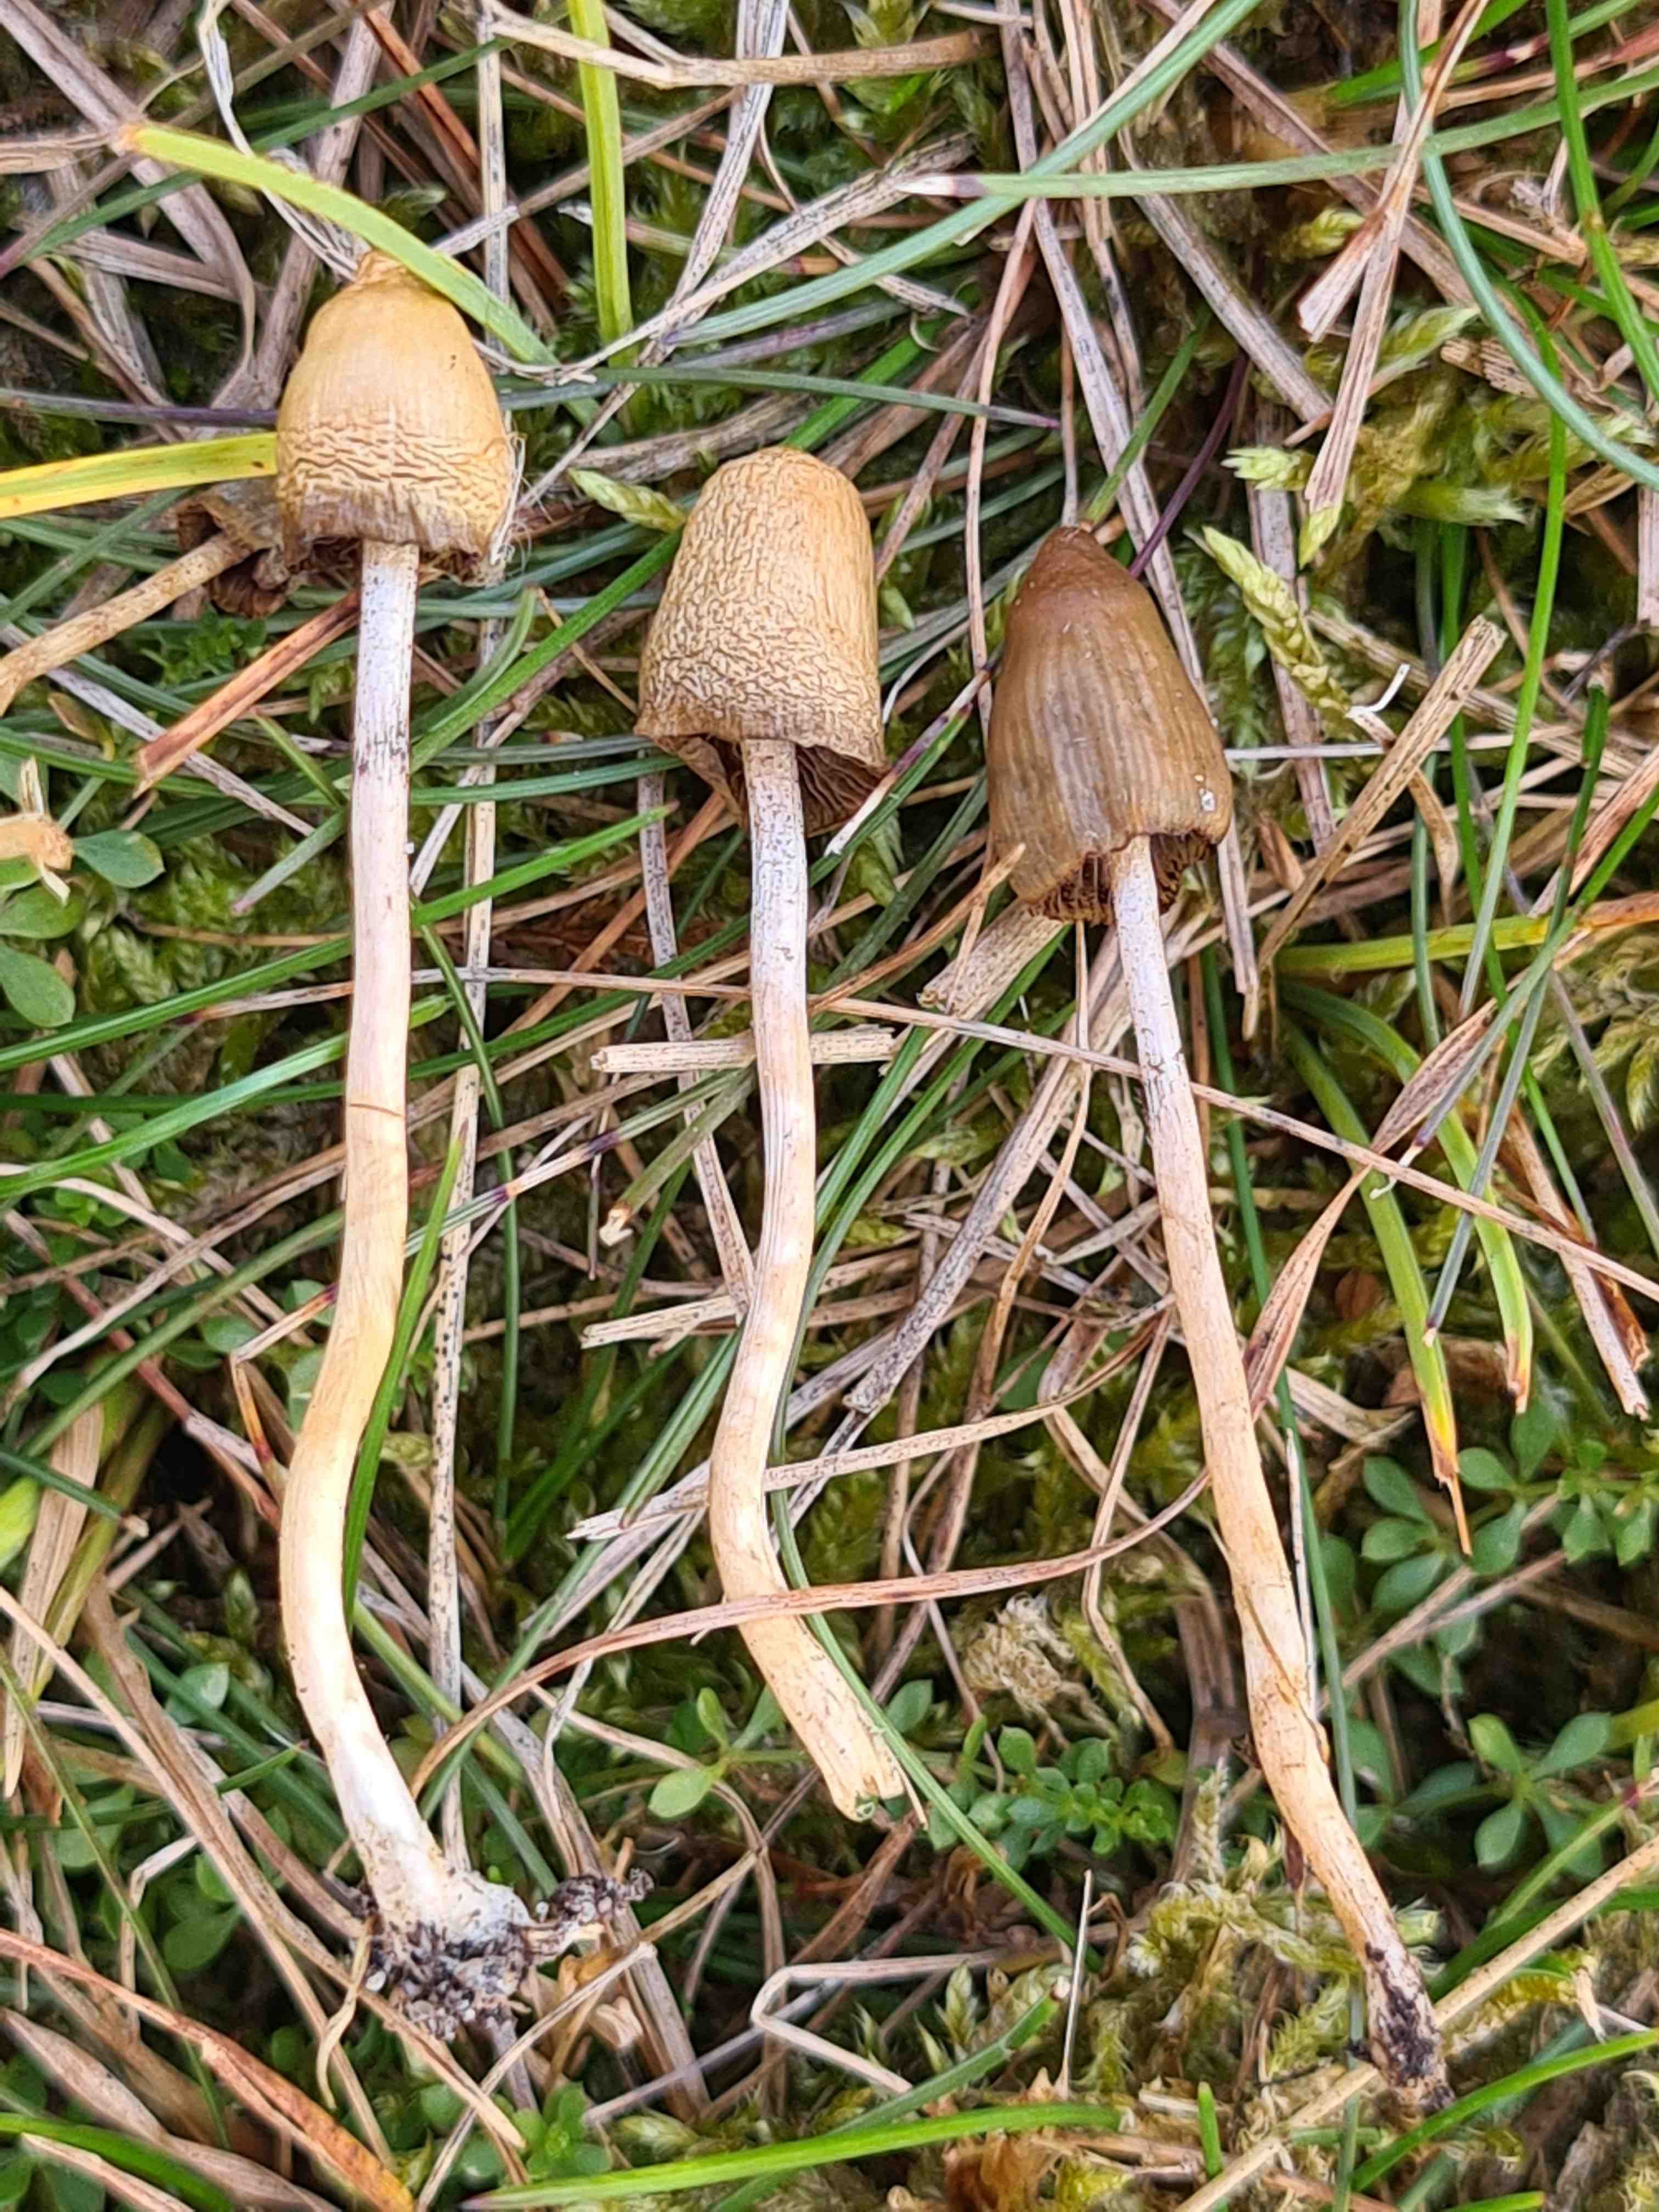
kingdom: Fungi
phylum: Basidiomycota
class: Agaricomycetes
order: Agaricales
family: Hymenogastraceae
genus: Psilocybe
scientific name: Psilocybe semilanceata
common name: spids nøgenhat
